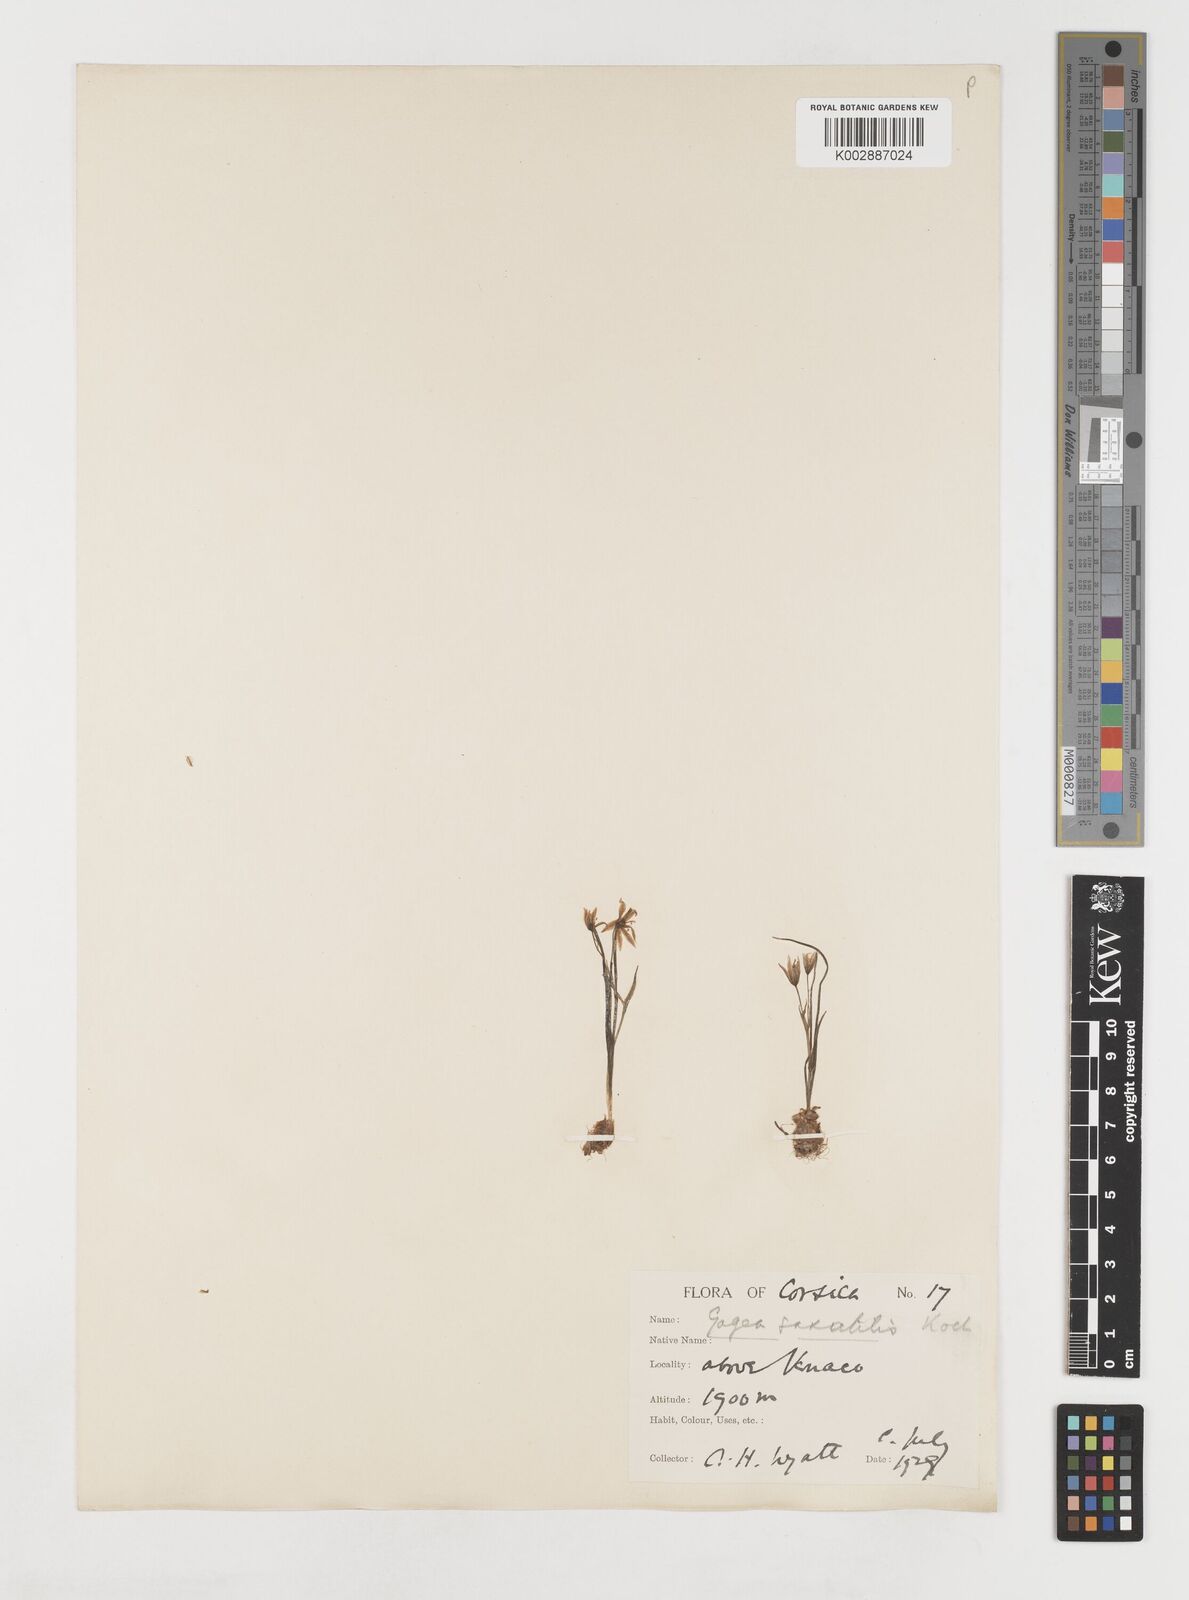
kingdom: Plantae
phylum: Tracheophyta
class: Liliopsida
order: Liliales
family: Liliaceae
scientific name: Liliaceae
